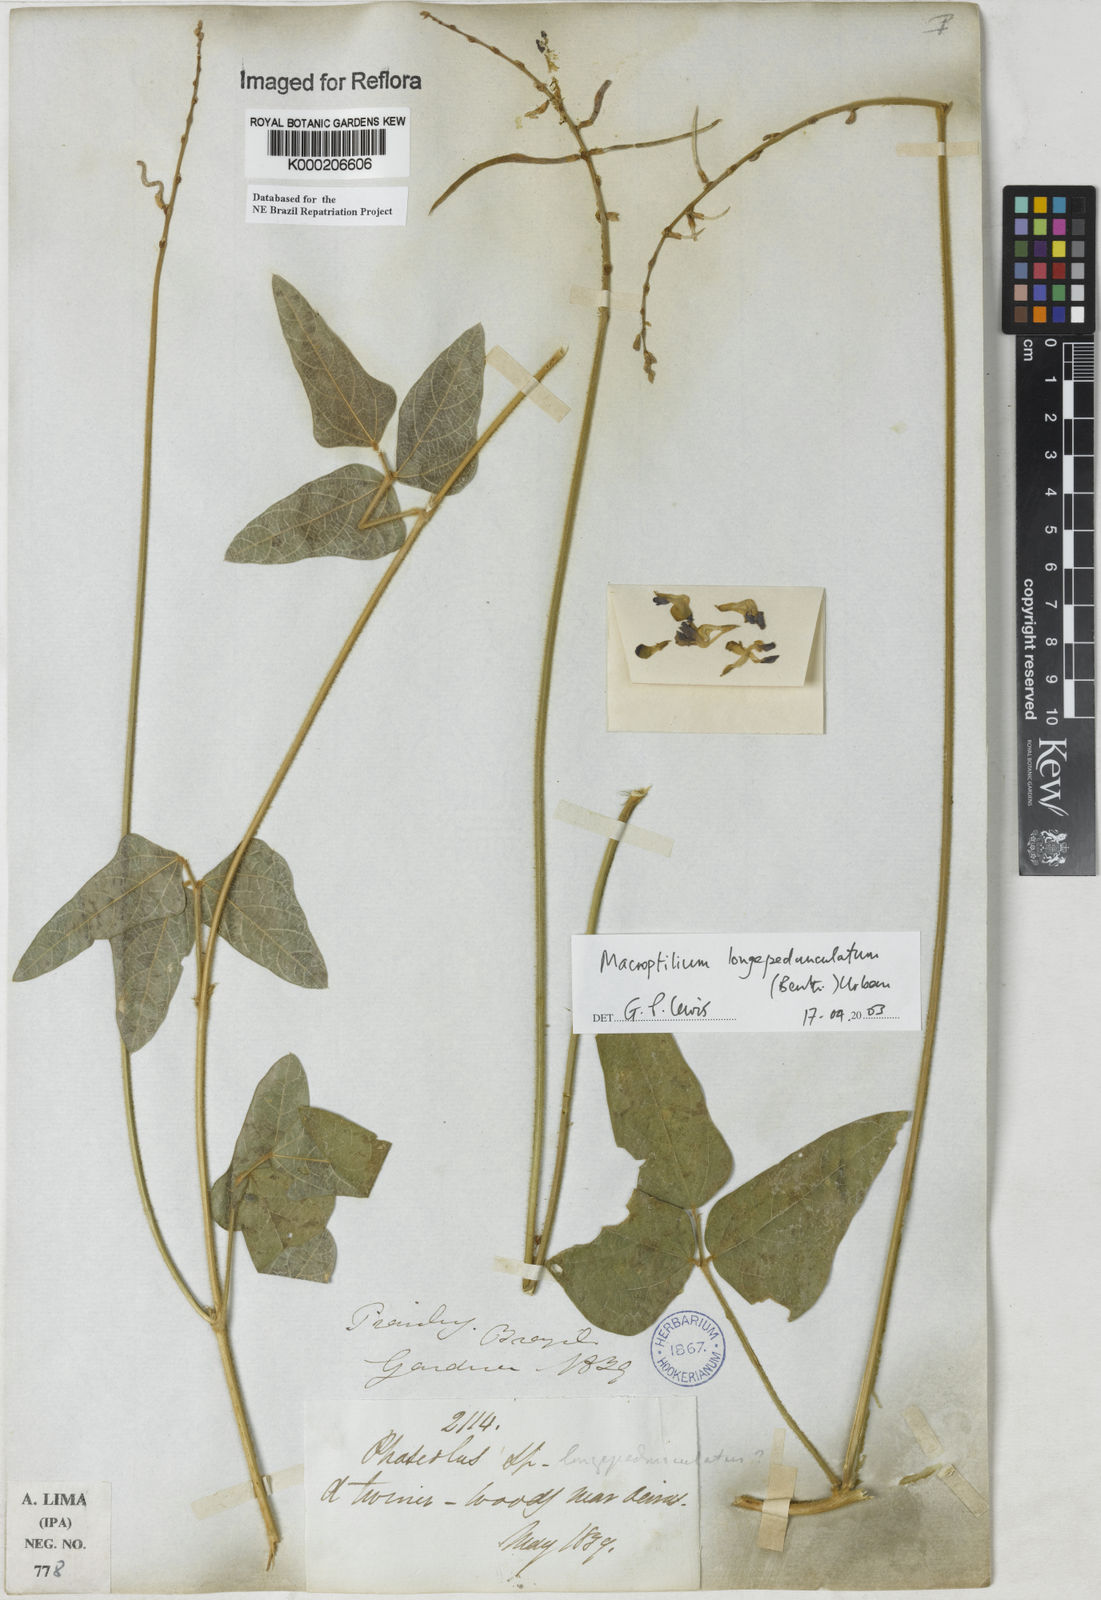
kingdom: Plantae
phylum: Tracheophyta
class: Magnoliopsida
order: Fabales
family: Fabaceae
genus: Macroptilium
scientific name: Macroptilium gracile
